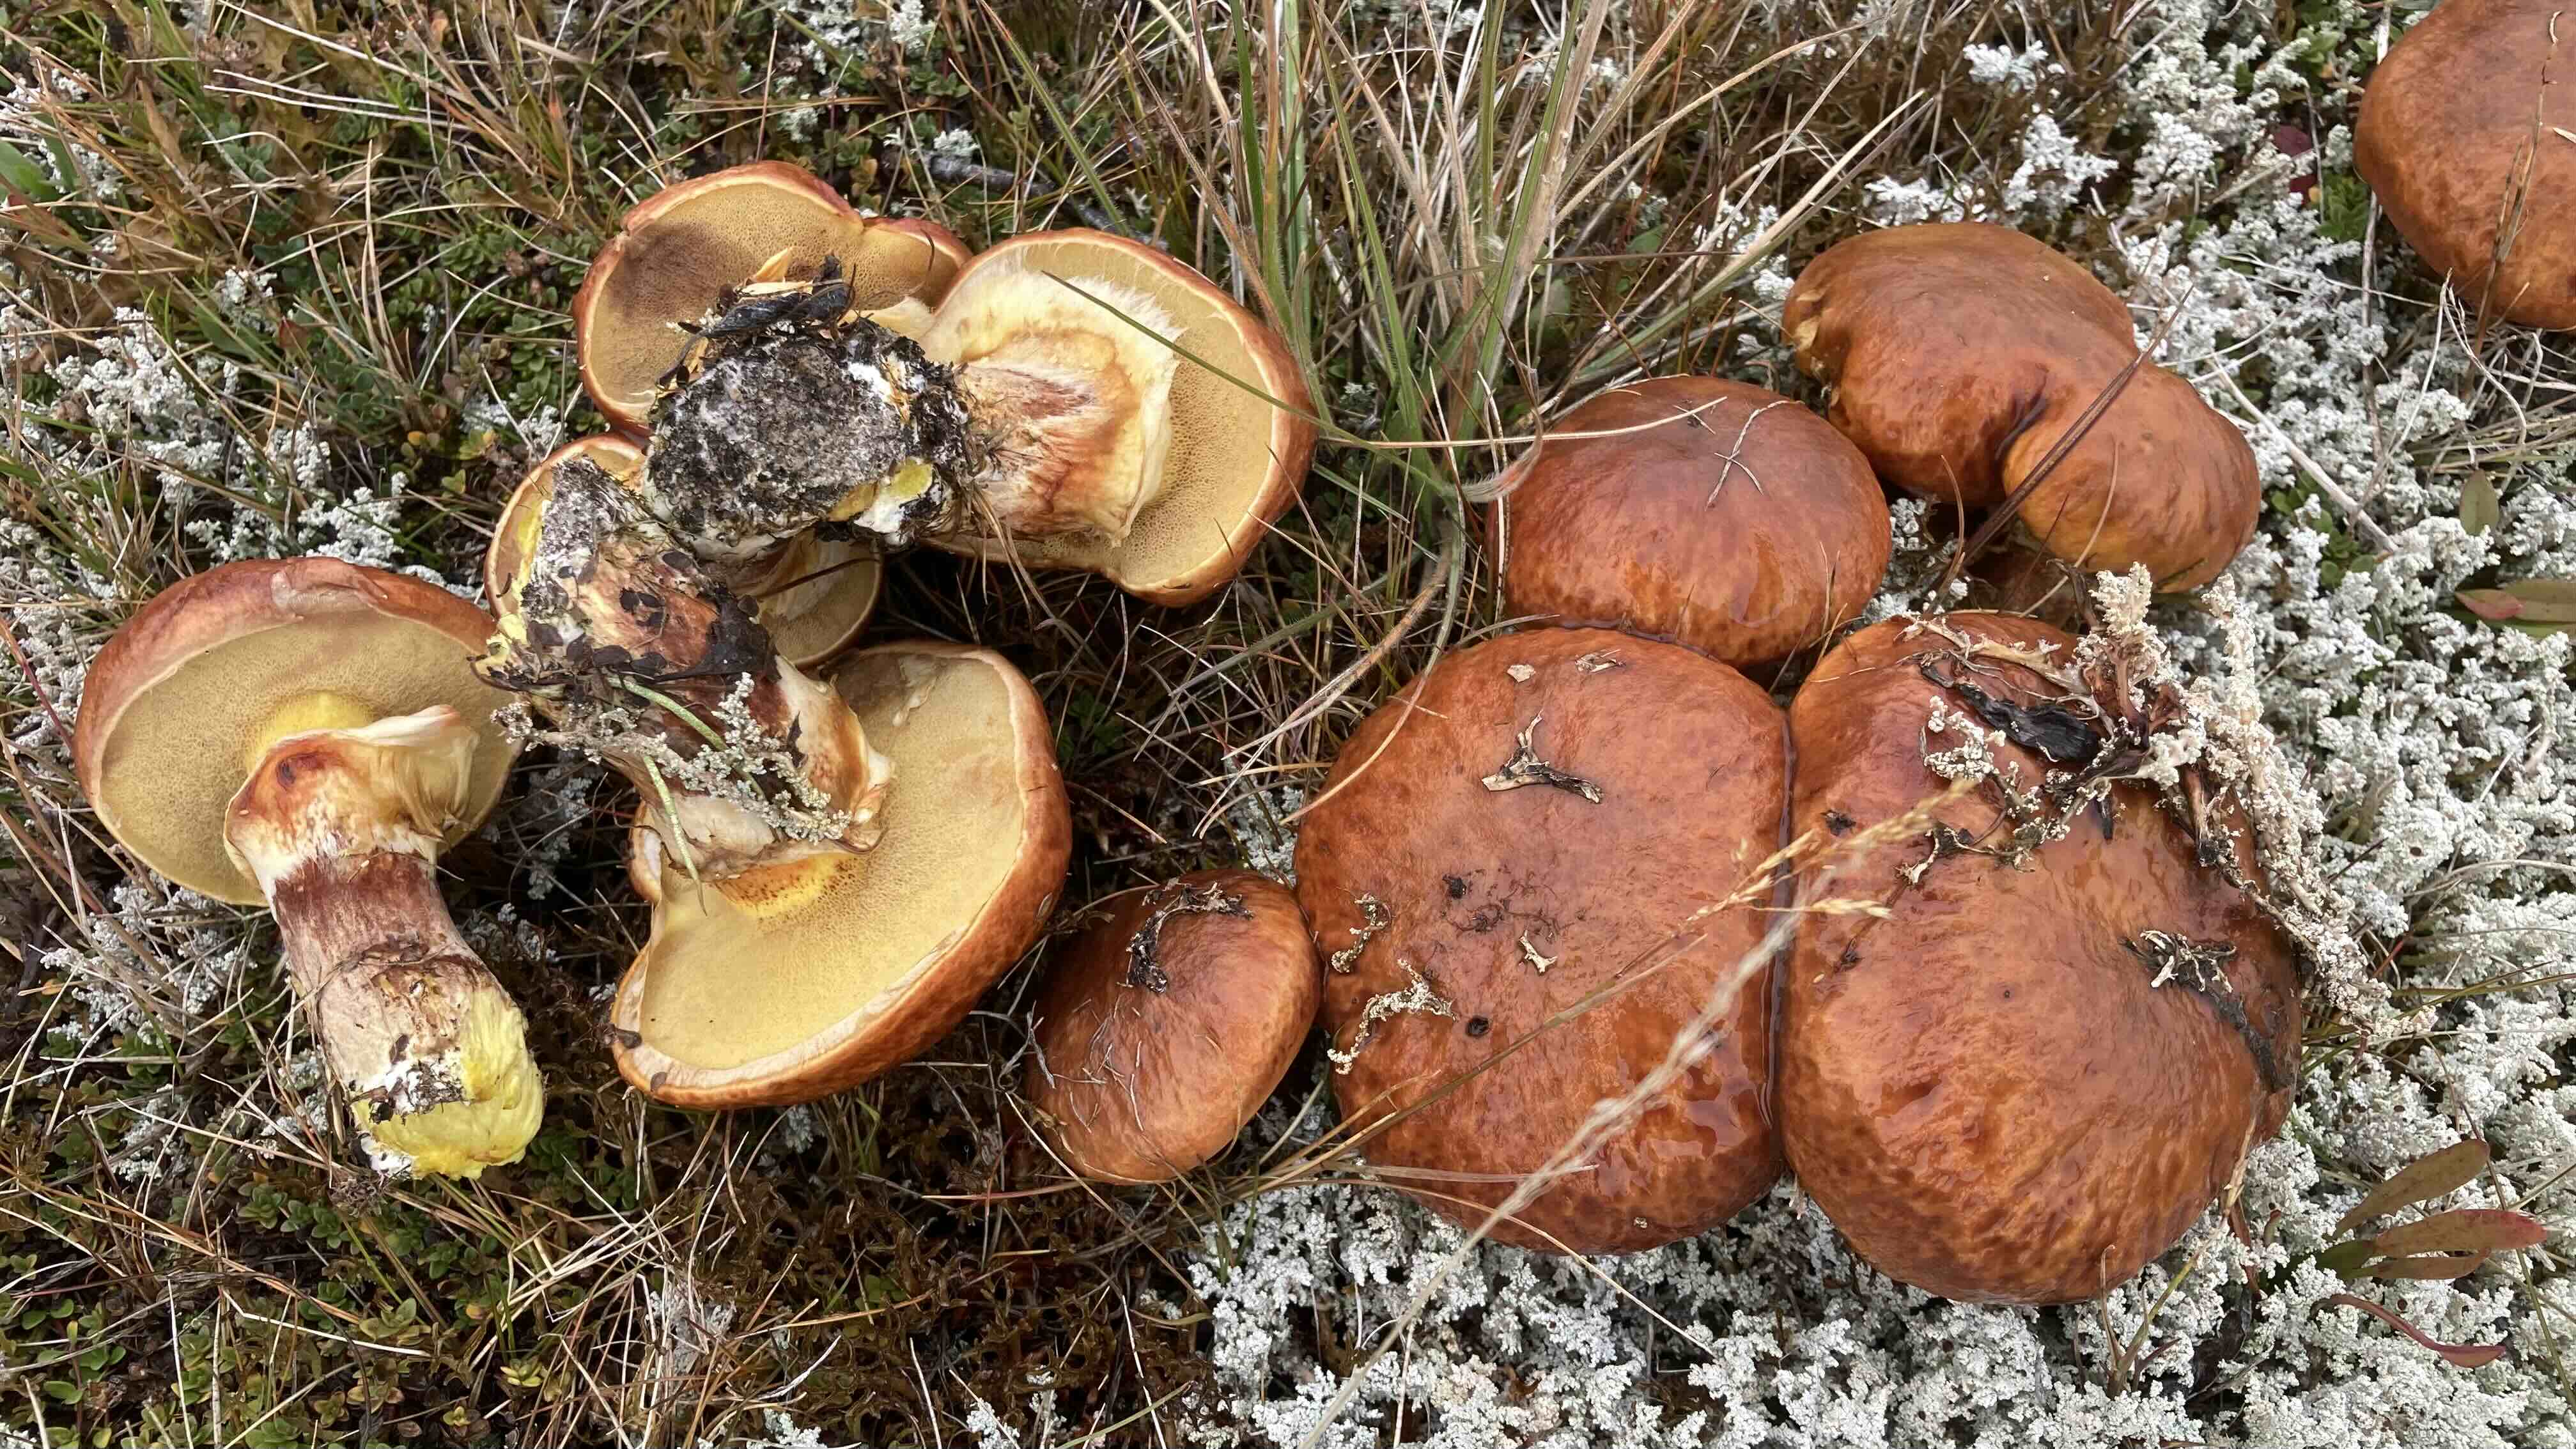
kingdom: Fungi
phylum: Basidiomycota
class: Agaricomycetes
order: Boletales
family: Suillaceae
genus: Suillus
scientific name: Suillus grevillei
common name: lærke-slimrørhat
